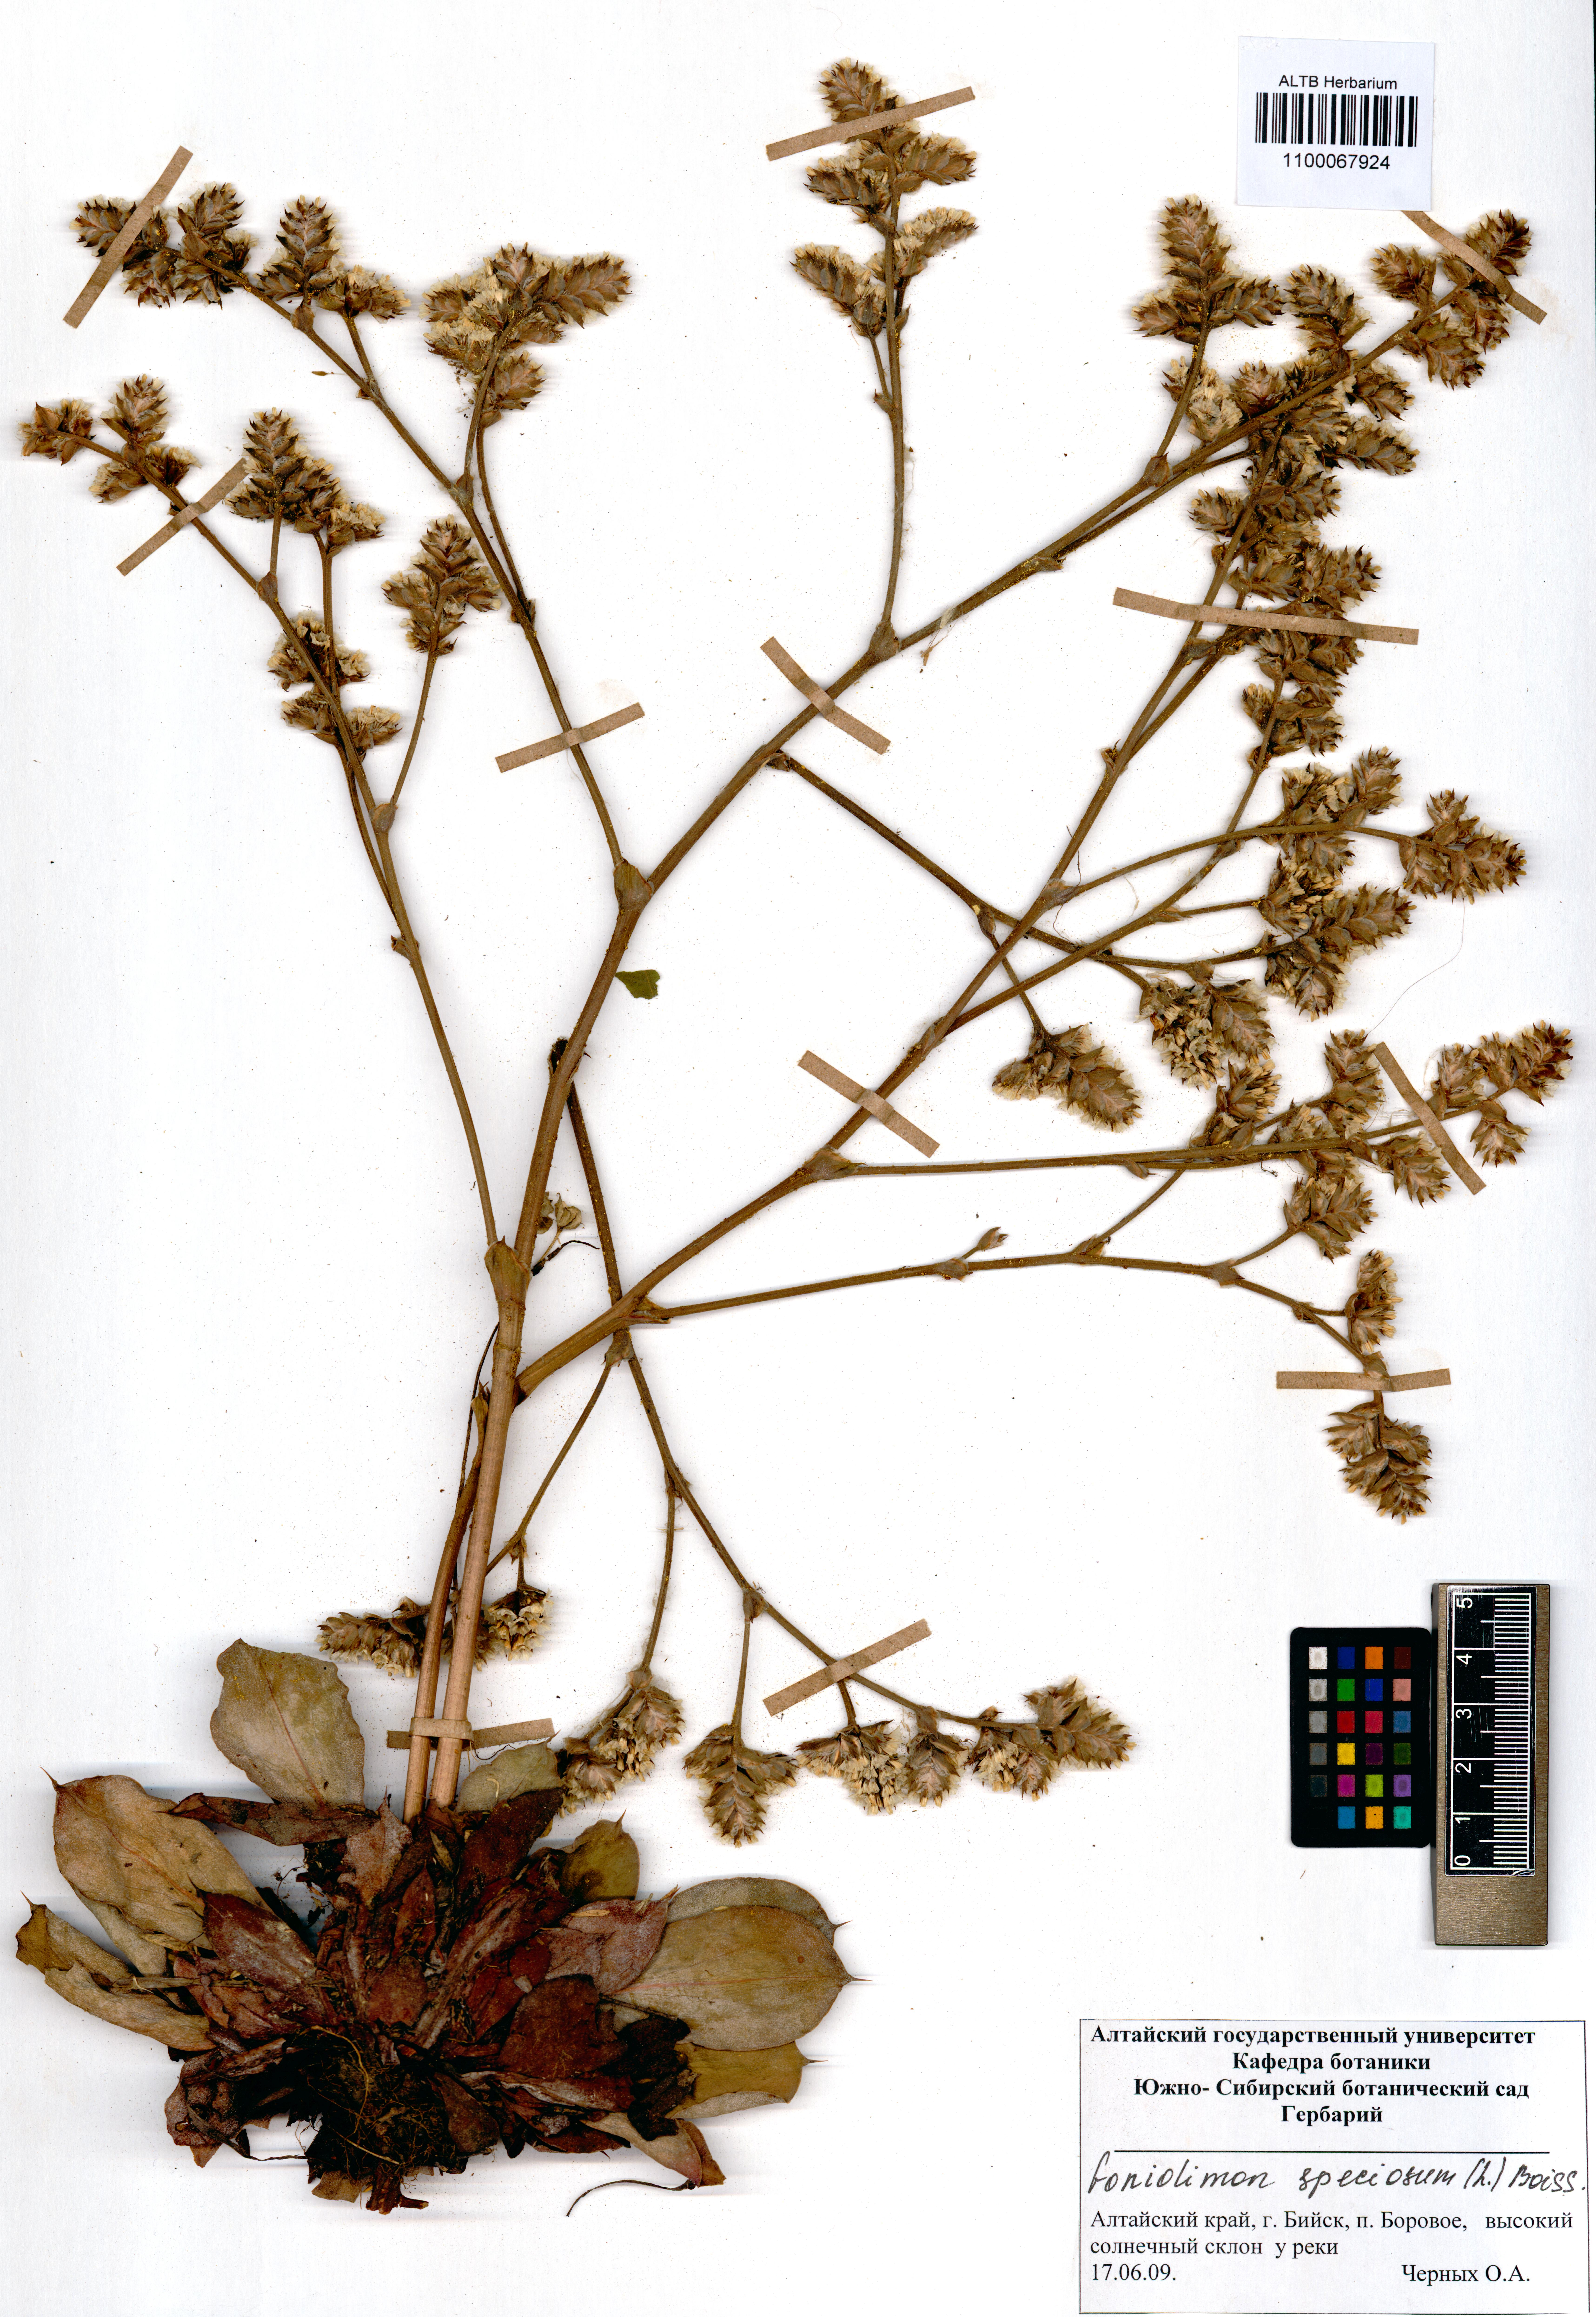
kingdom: Plantae
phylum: Tracheophyta
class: Magnoliopsida
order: Caryophyllales
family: Plumbaginaceae
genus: Goniolimon
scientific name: Goniolimon speciosum
